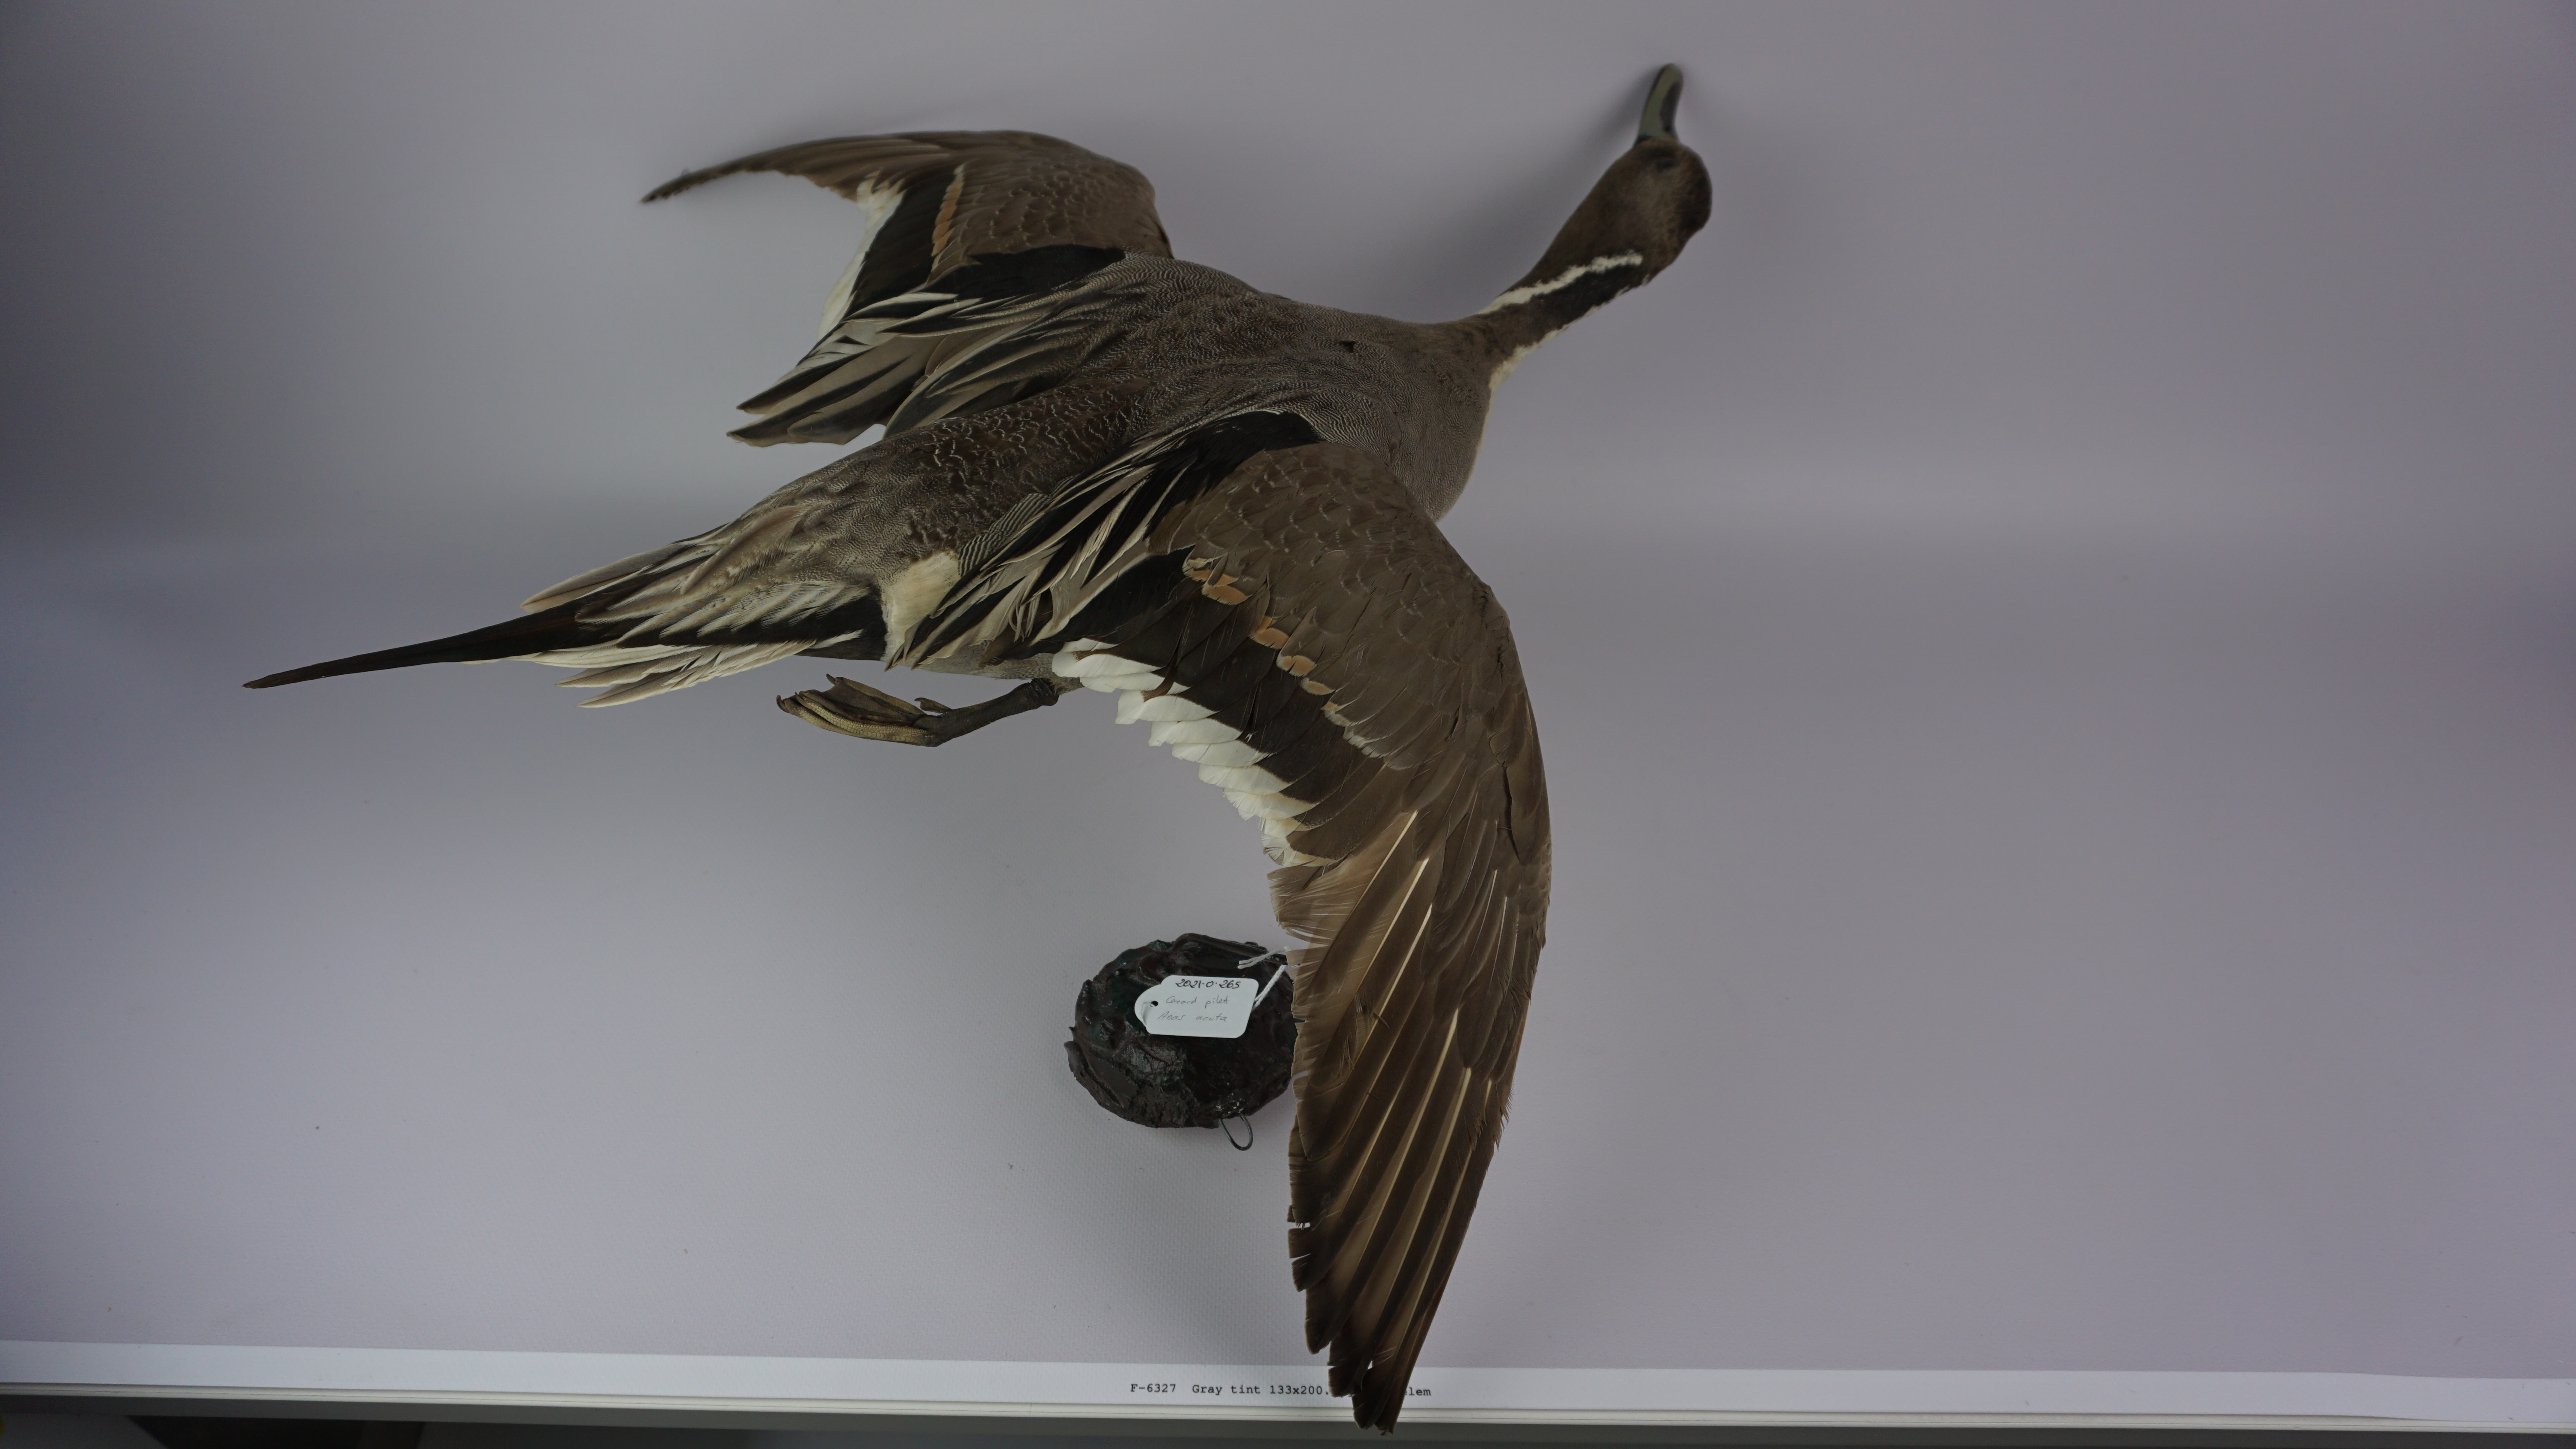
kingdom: Animalia
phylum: Chordata
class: Aves
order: Anseriformes
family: Anatidae
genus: Anas
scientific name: Anas acuta
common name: Northern pintail
